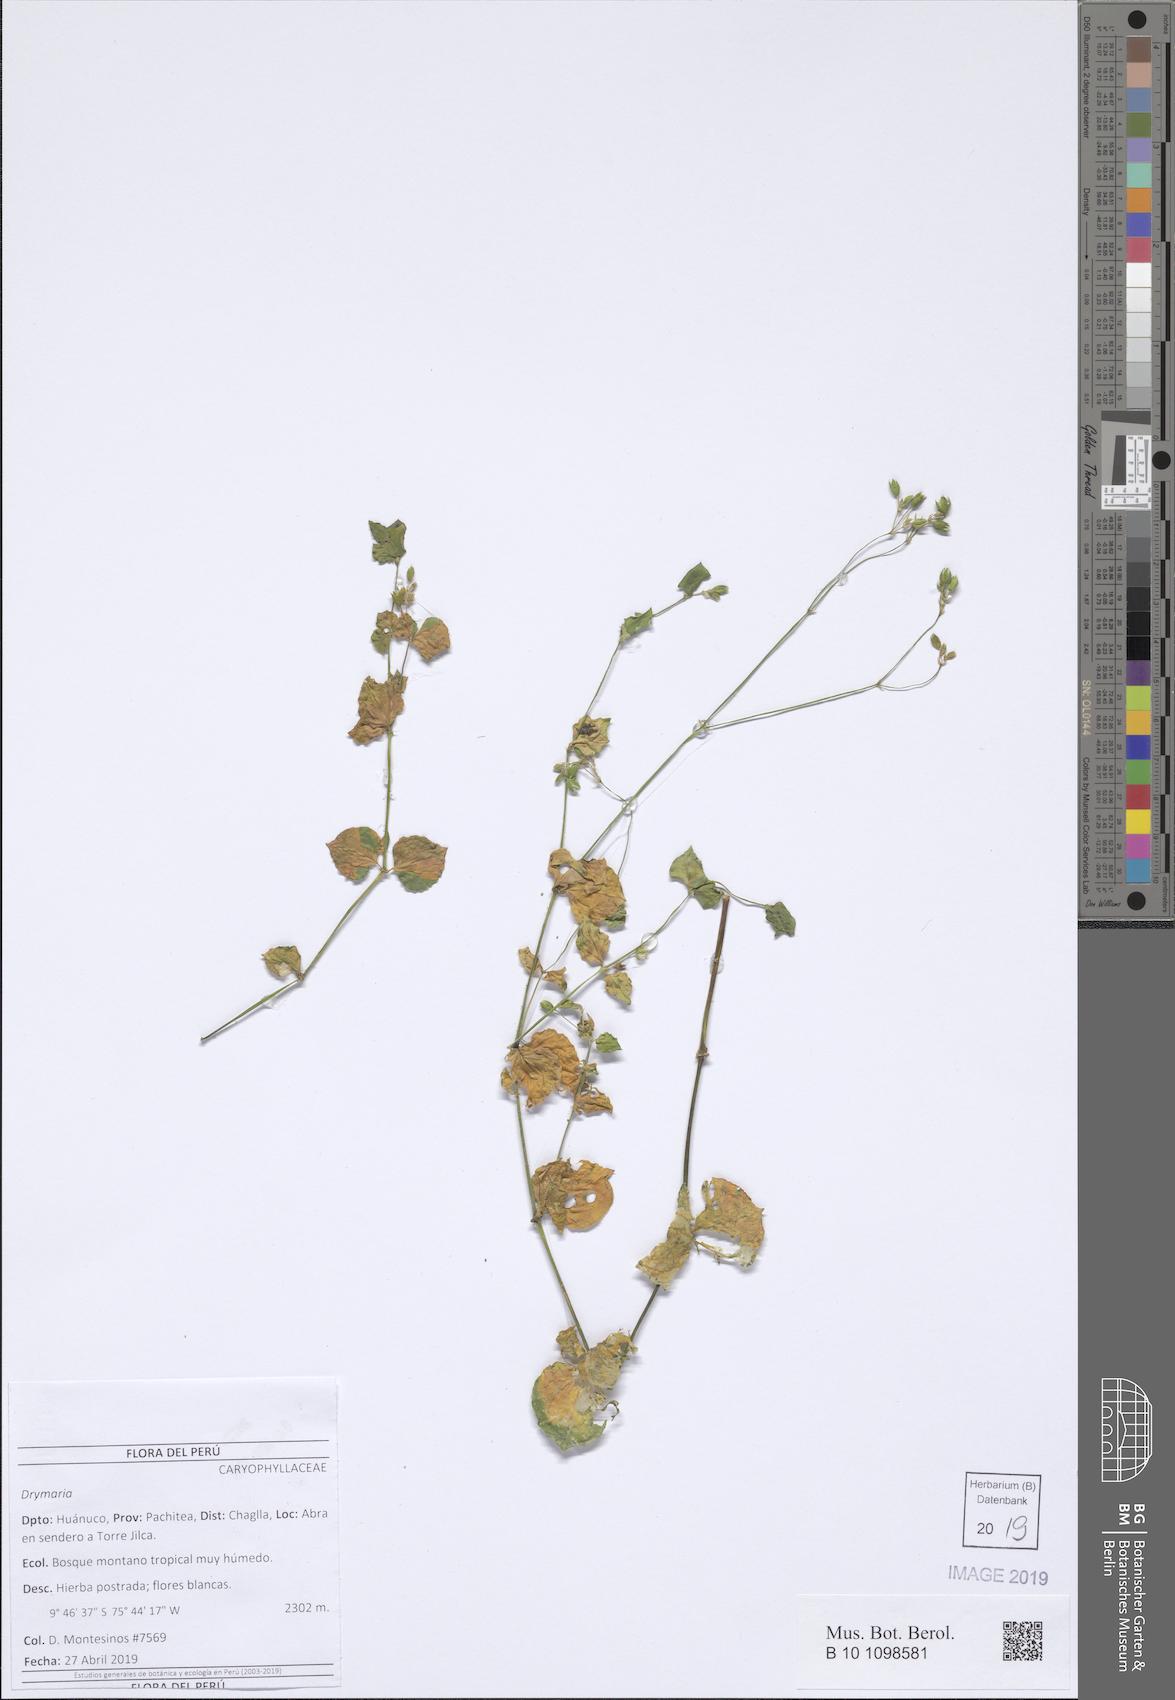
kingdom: Plantae
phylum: Tracheophyta
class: Magnoliopsida
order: Caryophyllales
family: Caryophyllaceae
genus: Drymaria
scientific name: Drymaria
